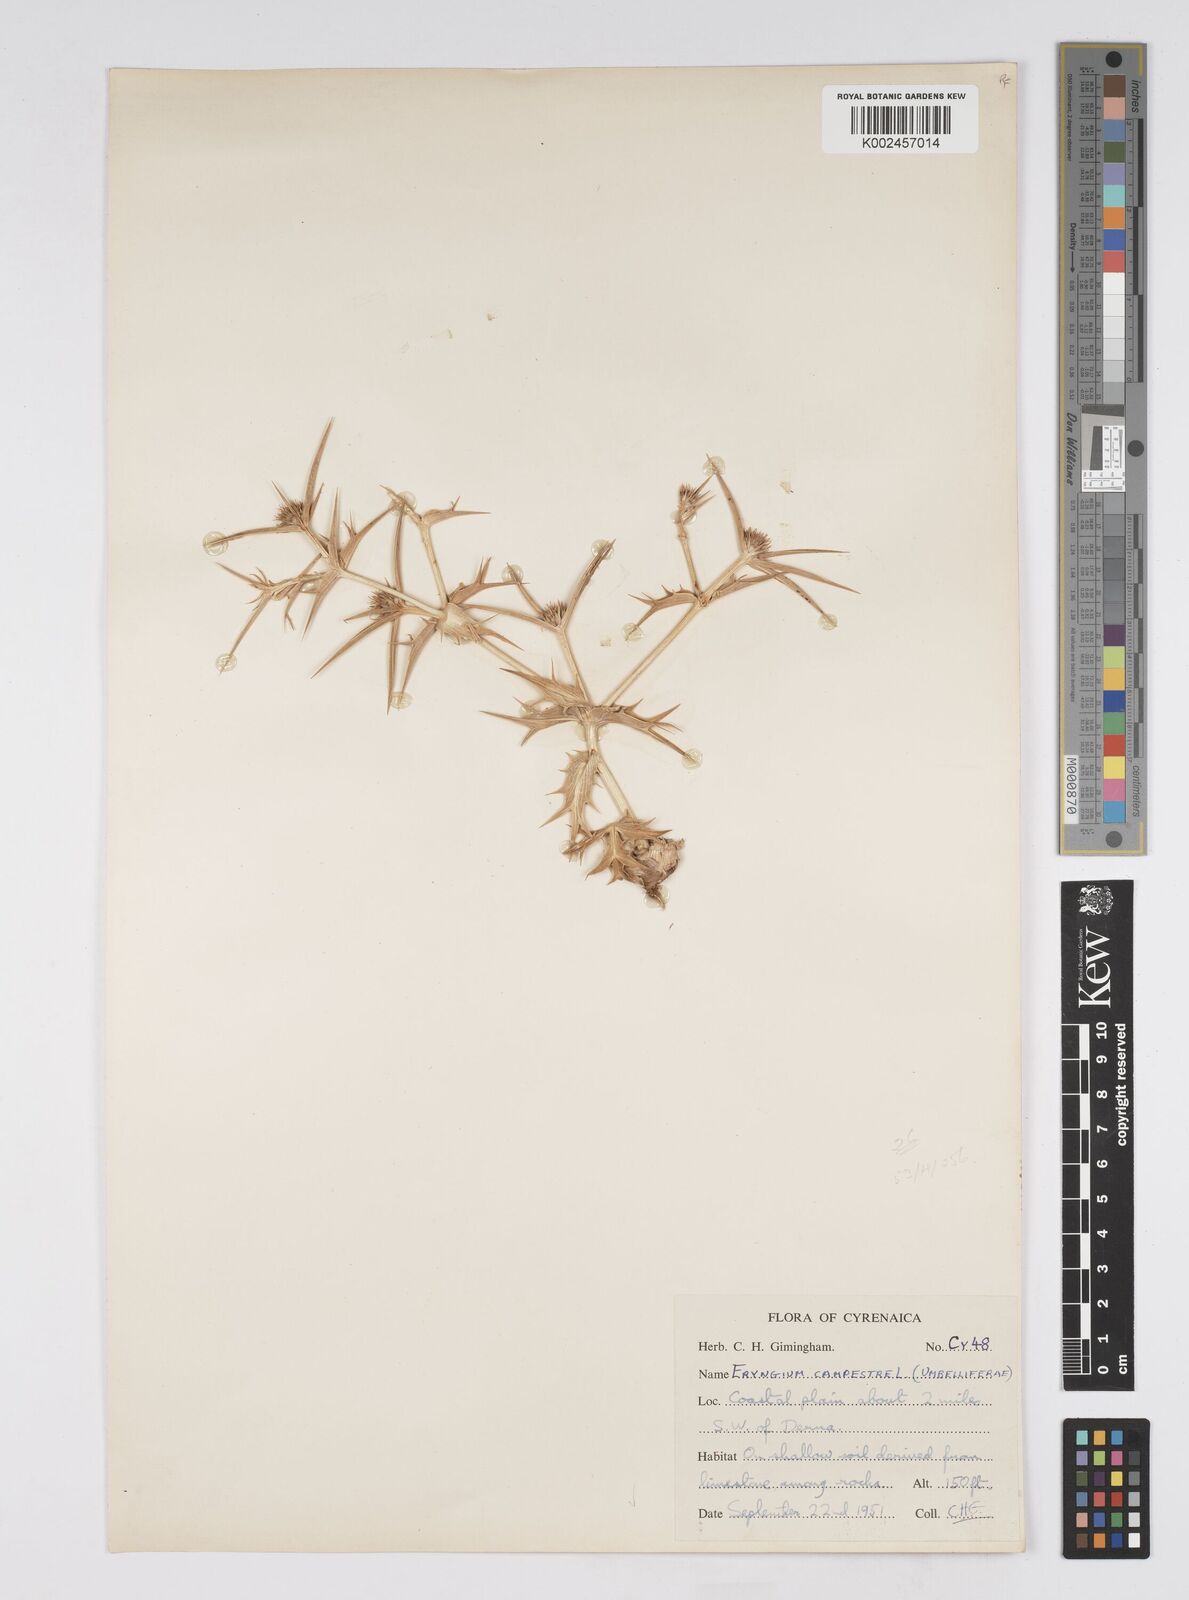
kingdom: Plantae
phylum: Tracheophyta
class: Magnoliopsida
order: Apiales
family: Apiaceae
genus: Eryngium
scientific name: Eryngium campestre
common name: Field eryngo
